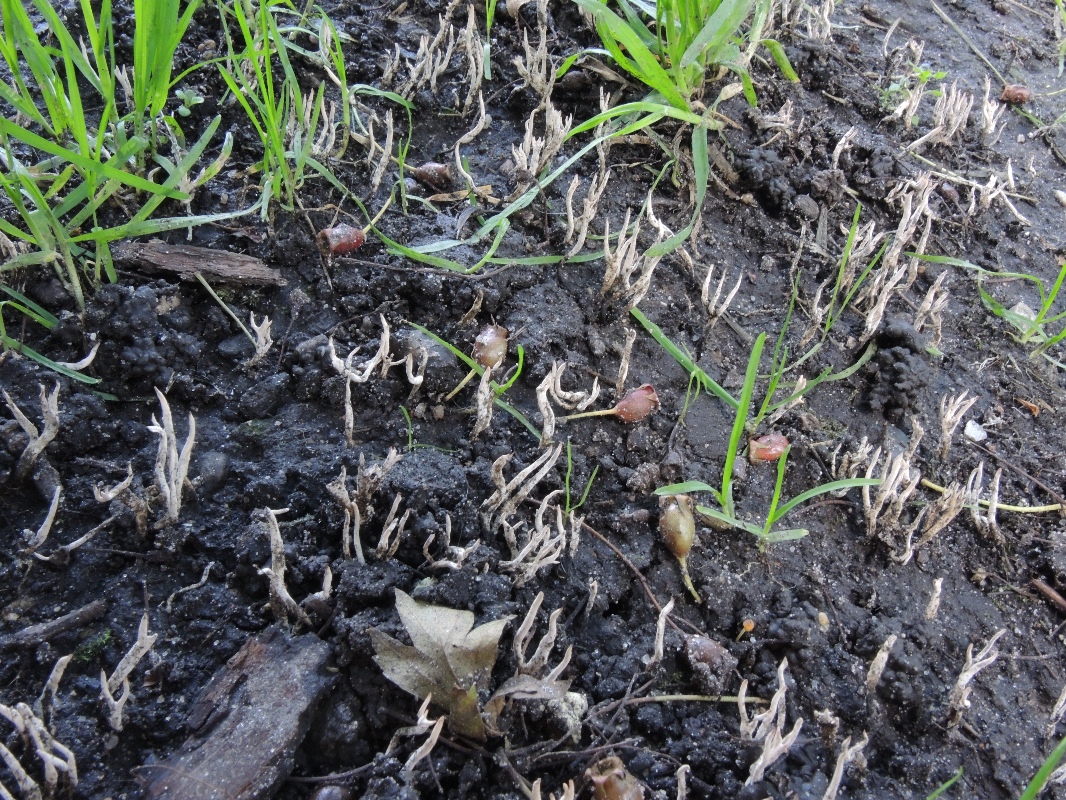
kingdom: Fungi
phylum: Ascomycota
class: Sordariomycetes
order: Xylariales
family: Xylariaceae
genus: Xylaria
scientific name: Xylaria oxyacanthae
